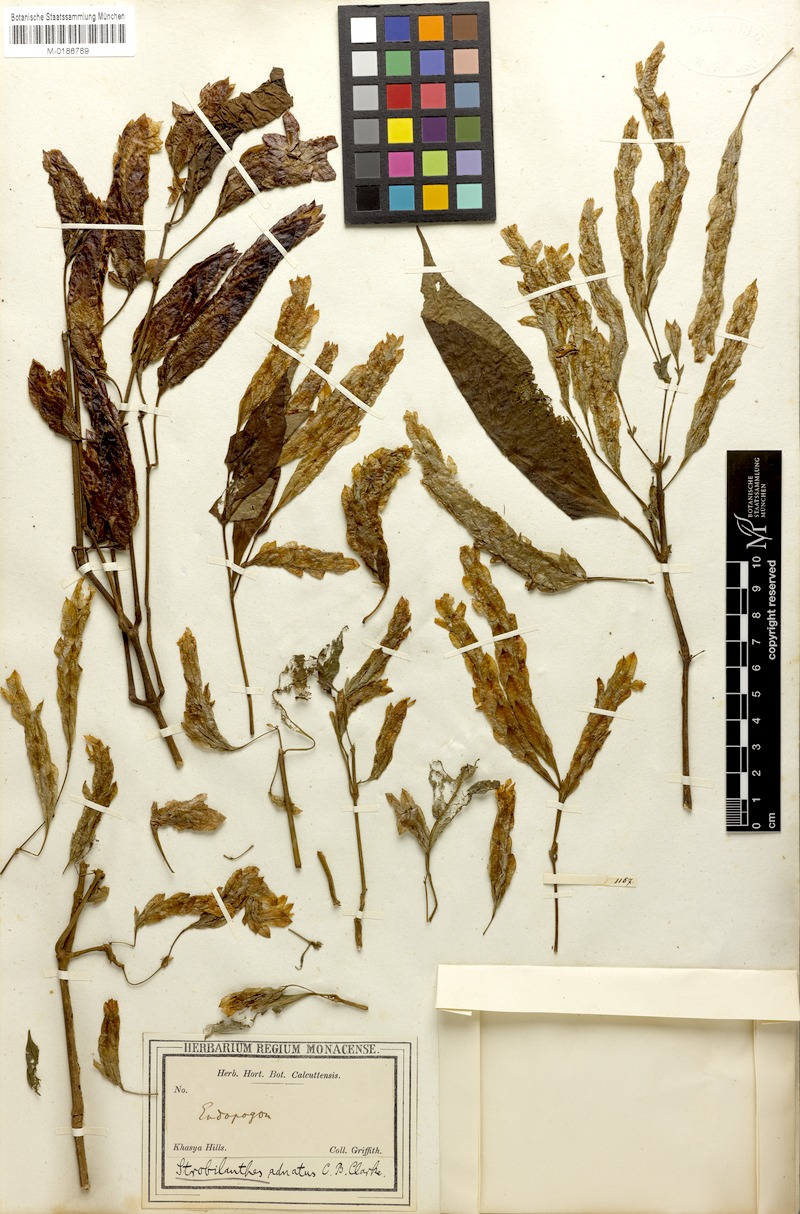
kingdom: Plantae
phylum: Tracheophyta
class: Magnoliopsida
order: Lamiales
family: Acanthaceae
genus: Strobilanthes
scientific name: Strobilanthes adnata
